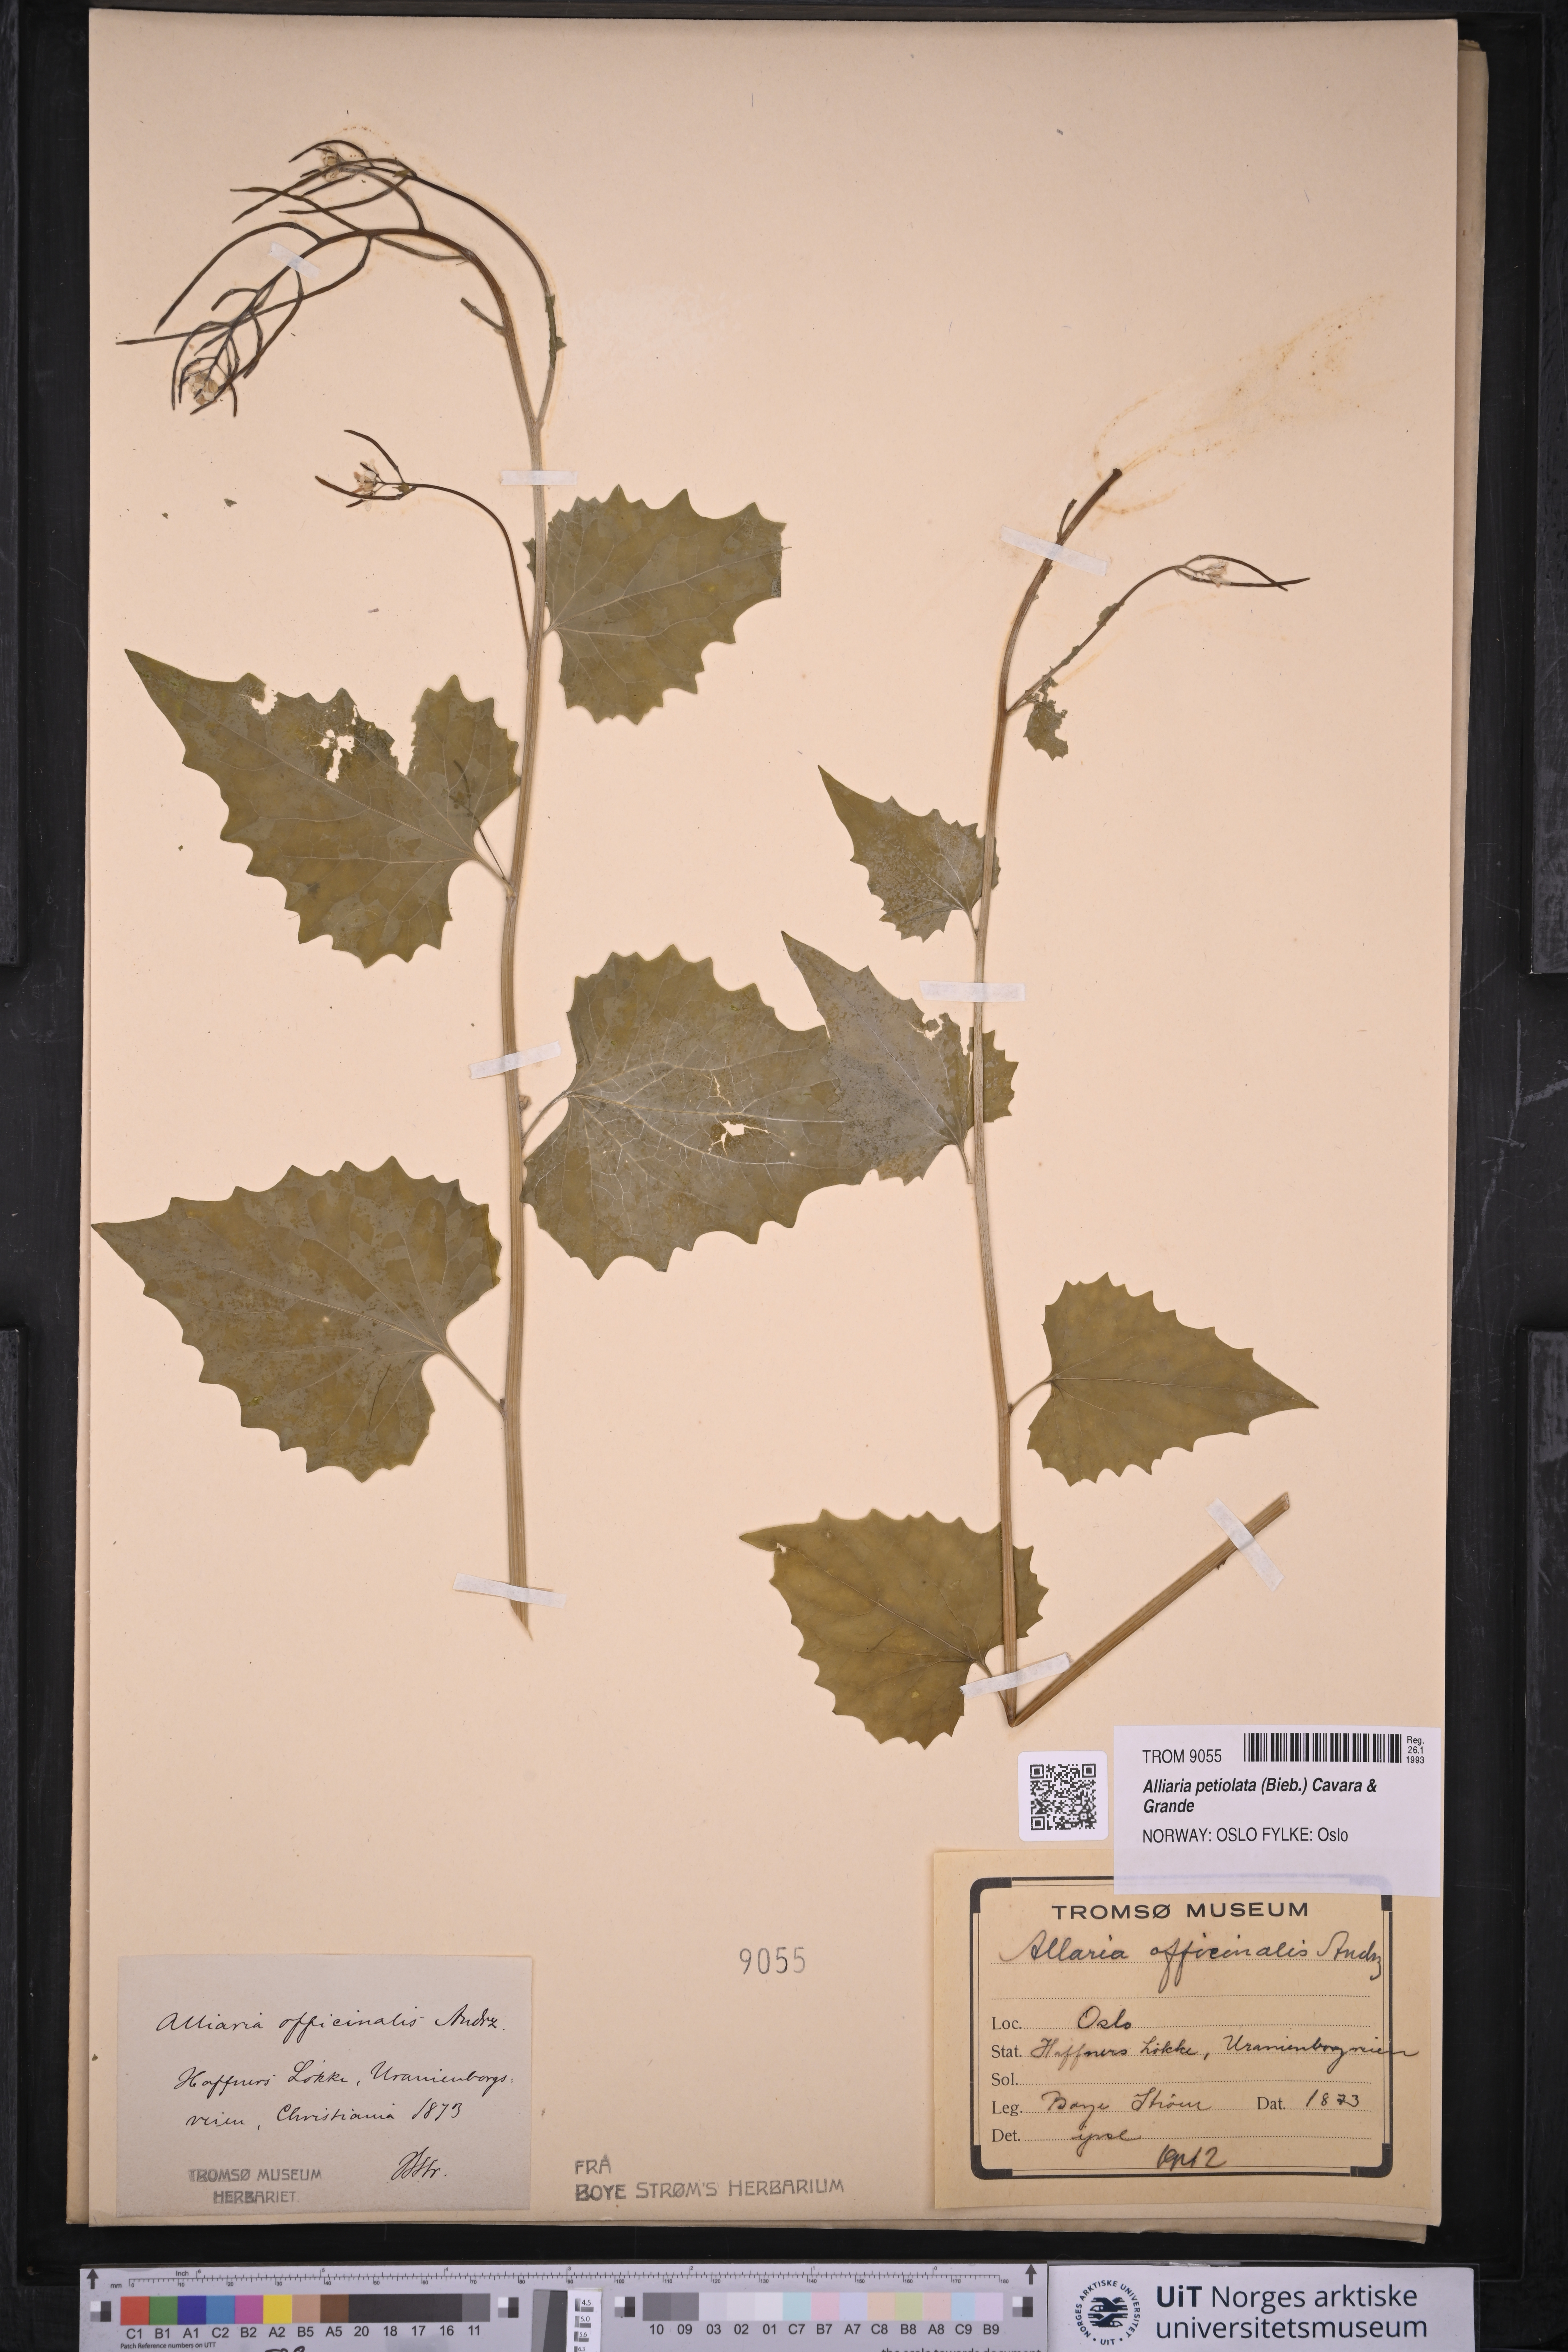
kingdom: Plantae
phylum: Tracheophyta
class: Magnoliopsida
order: Brassicales
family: Brassicaceae
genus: Alliaria
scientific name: Alliaria petiolata
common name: Garlic mustard
